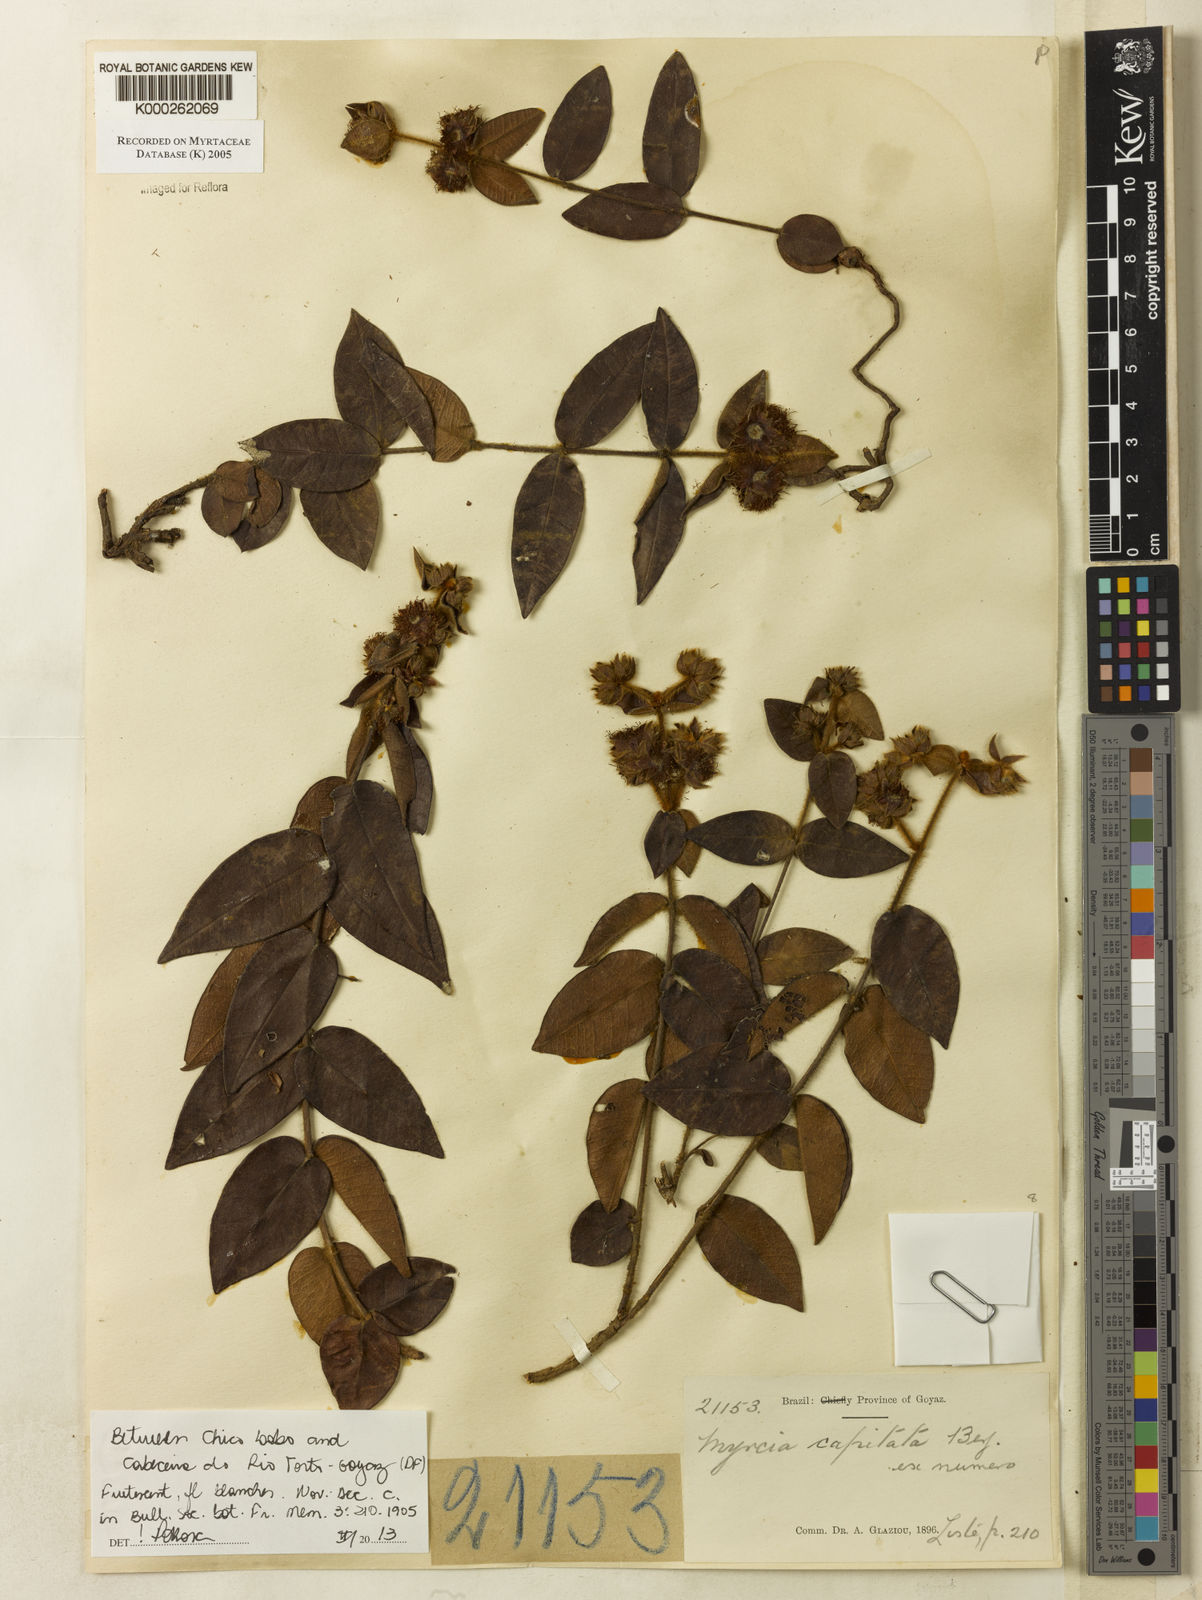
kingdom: Plantae
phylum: Tracheophyta
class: Magnoliopsida
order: Myrtales
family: Myrtaceae
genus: Myrcia
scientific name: Myrcia capitata
